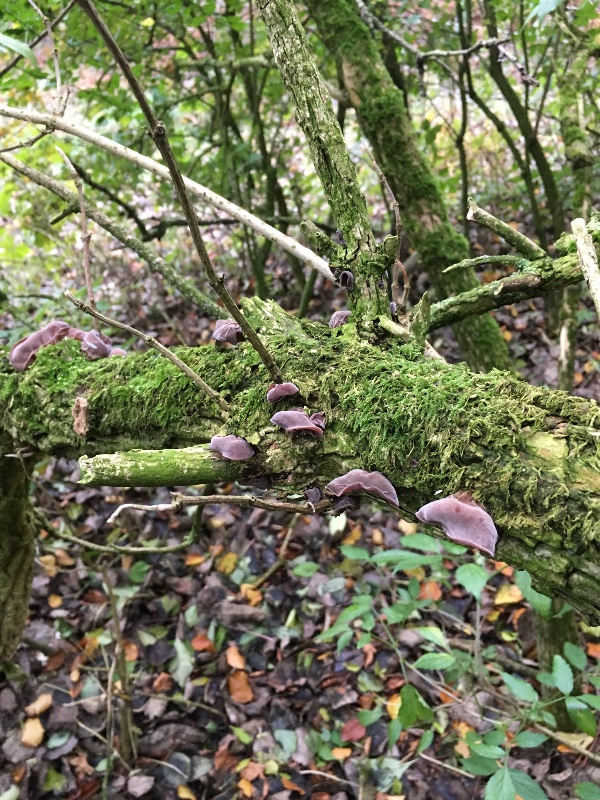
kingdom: Fungi
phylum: Basidiomycota
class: Agaricomycetes
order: Auriculariales
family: Auriculariaceae
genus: Auricularia
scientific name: Auricularia auricula-judae
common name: almindelig judasøre
